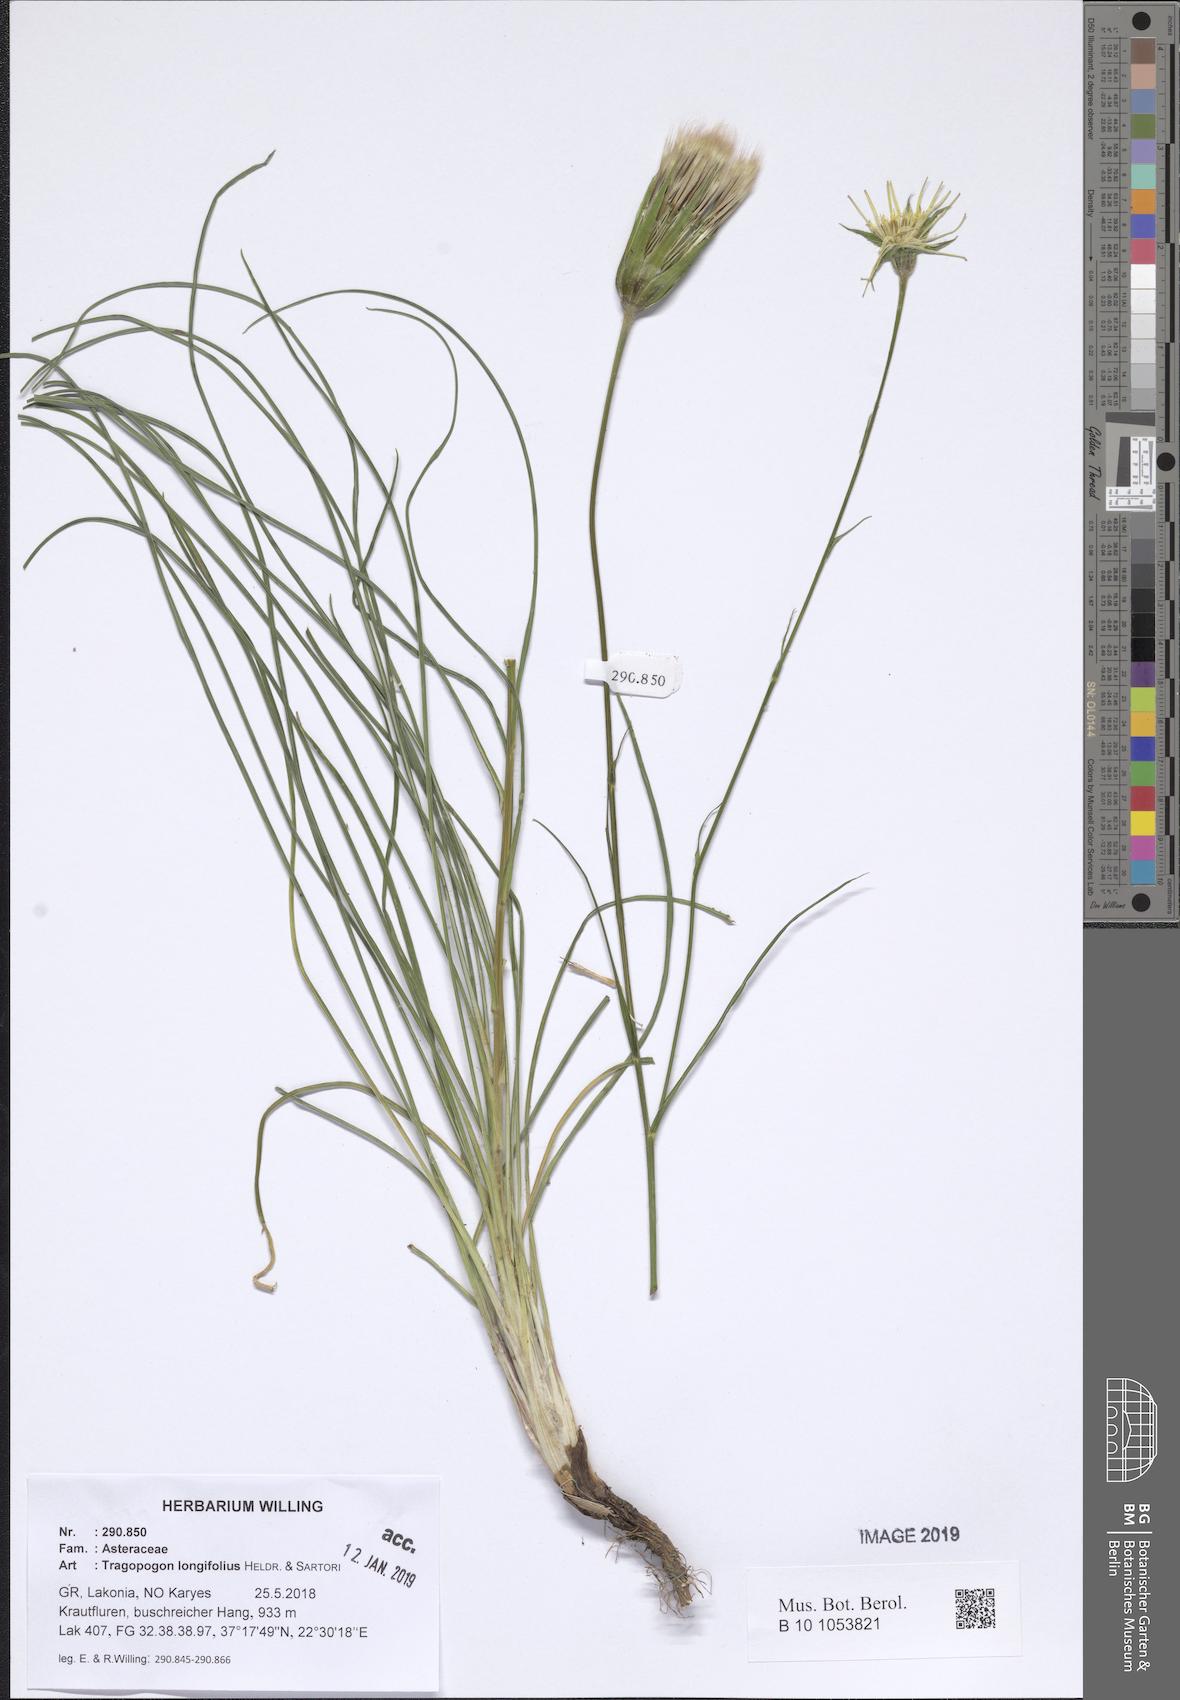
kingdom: Plantae
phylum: Tracheophyta
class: Magnoliopsida
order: Asterales
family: Asteraceae
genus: Tragopogon
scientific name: Tragopogon longifolius
